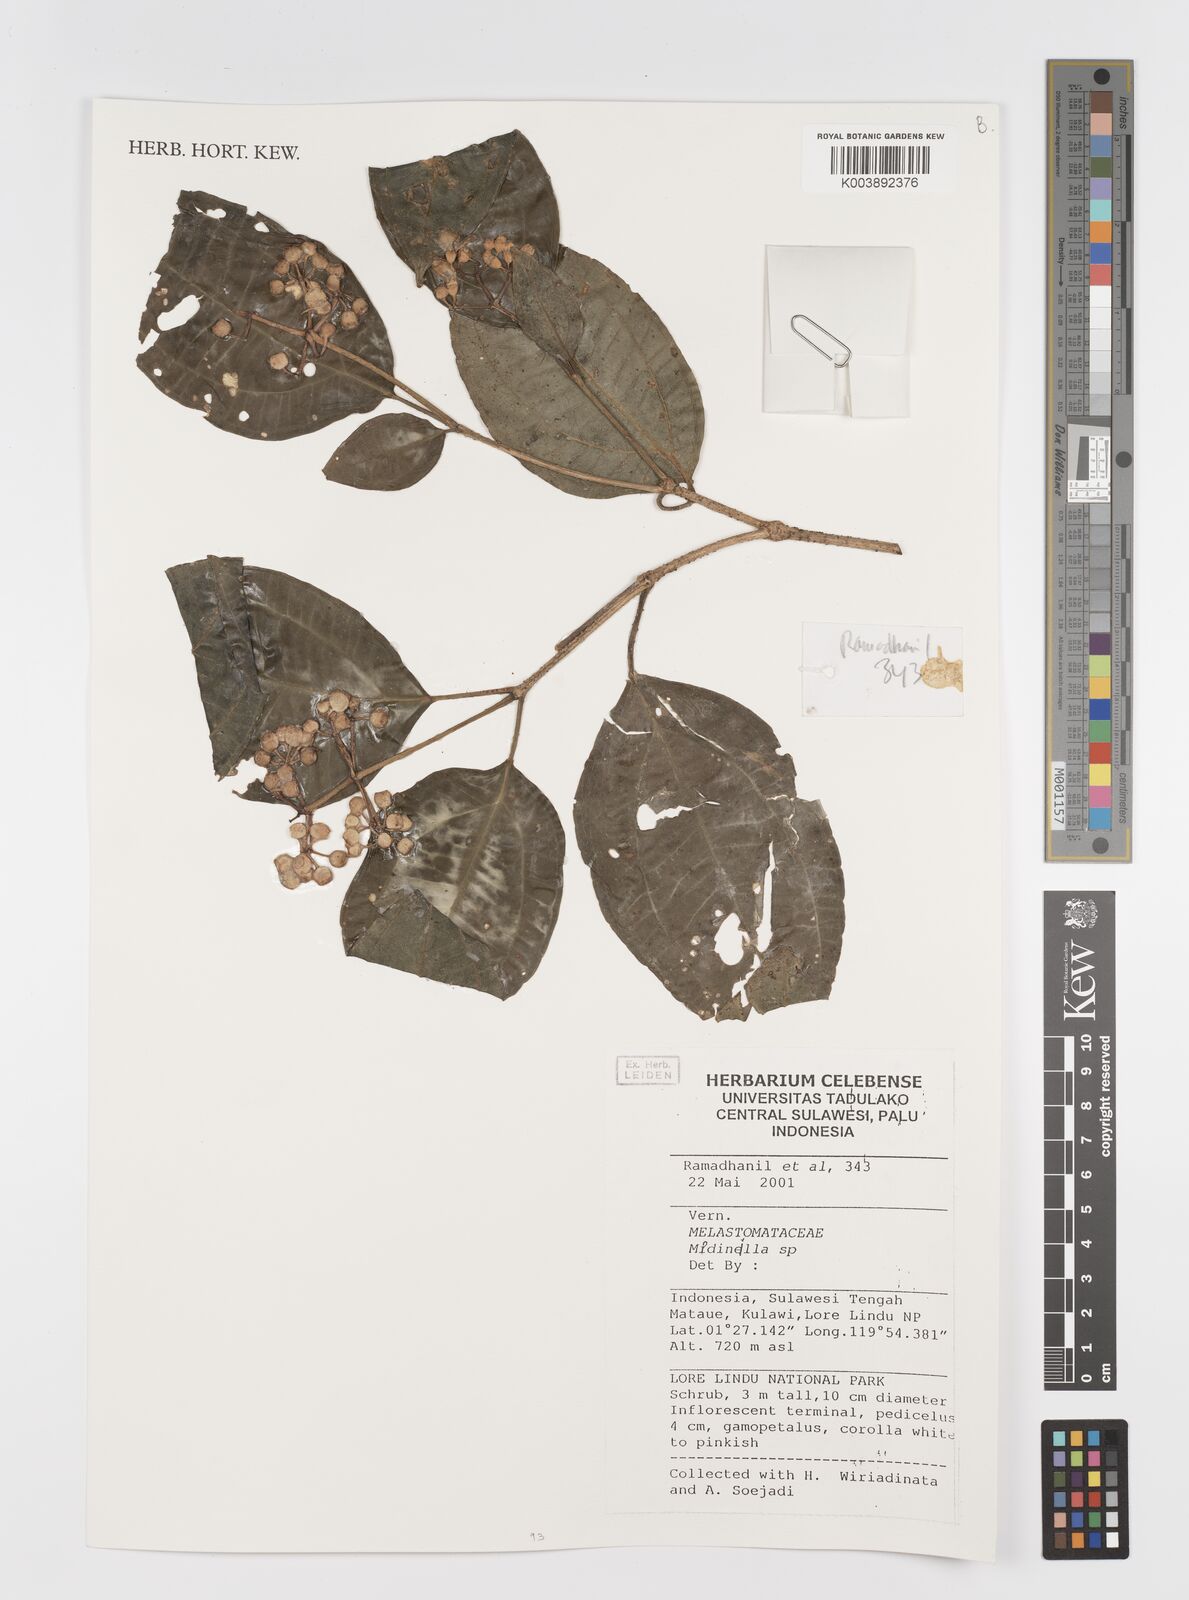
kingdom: Plantae
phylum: Tracheophyta
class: Magnoliopsida
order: Myrtales
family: Melastomataceae
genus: Medinilla
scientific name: Medinilla
